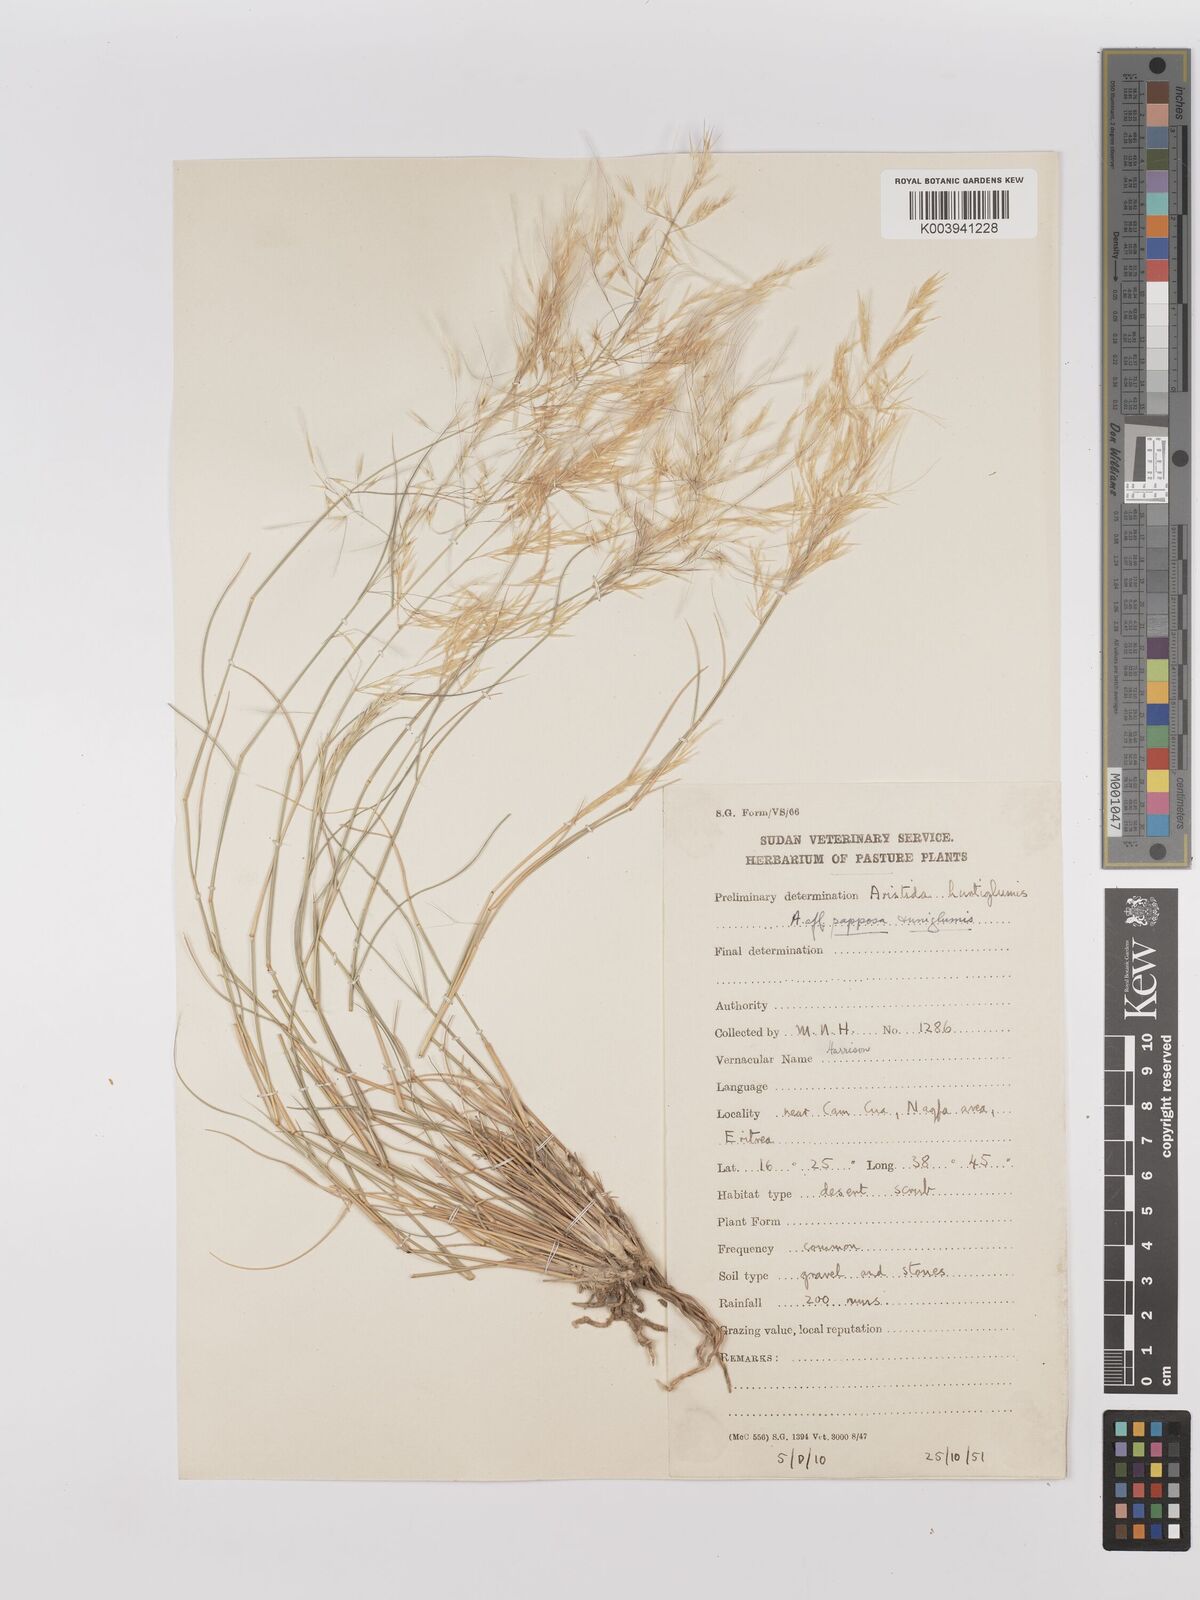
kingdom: Plantae
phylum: Tracheophyta
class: Liliopsida
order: Poales
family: Poaceae
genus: Stipagrostis
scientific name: Stipagrostis uniplumis
